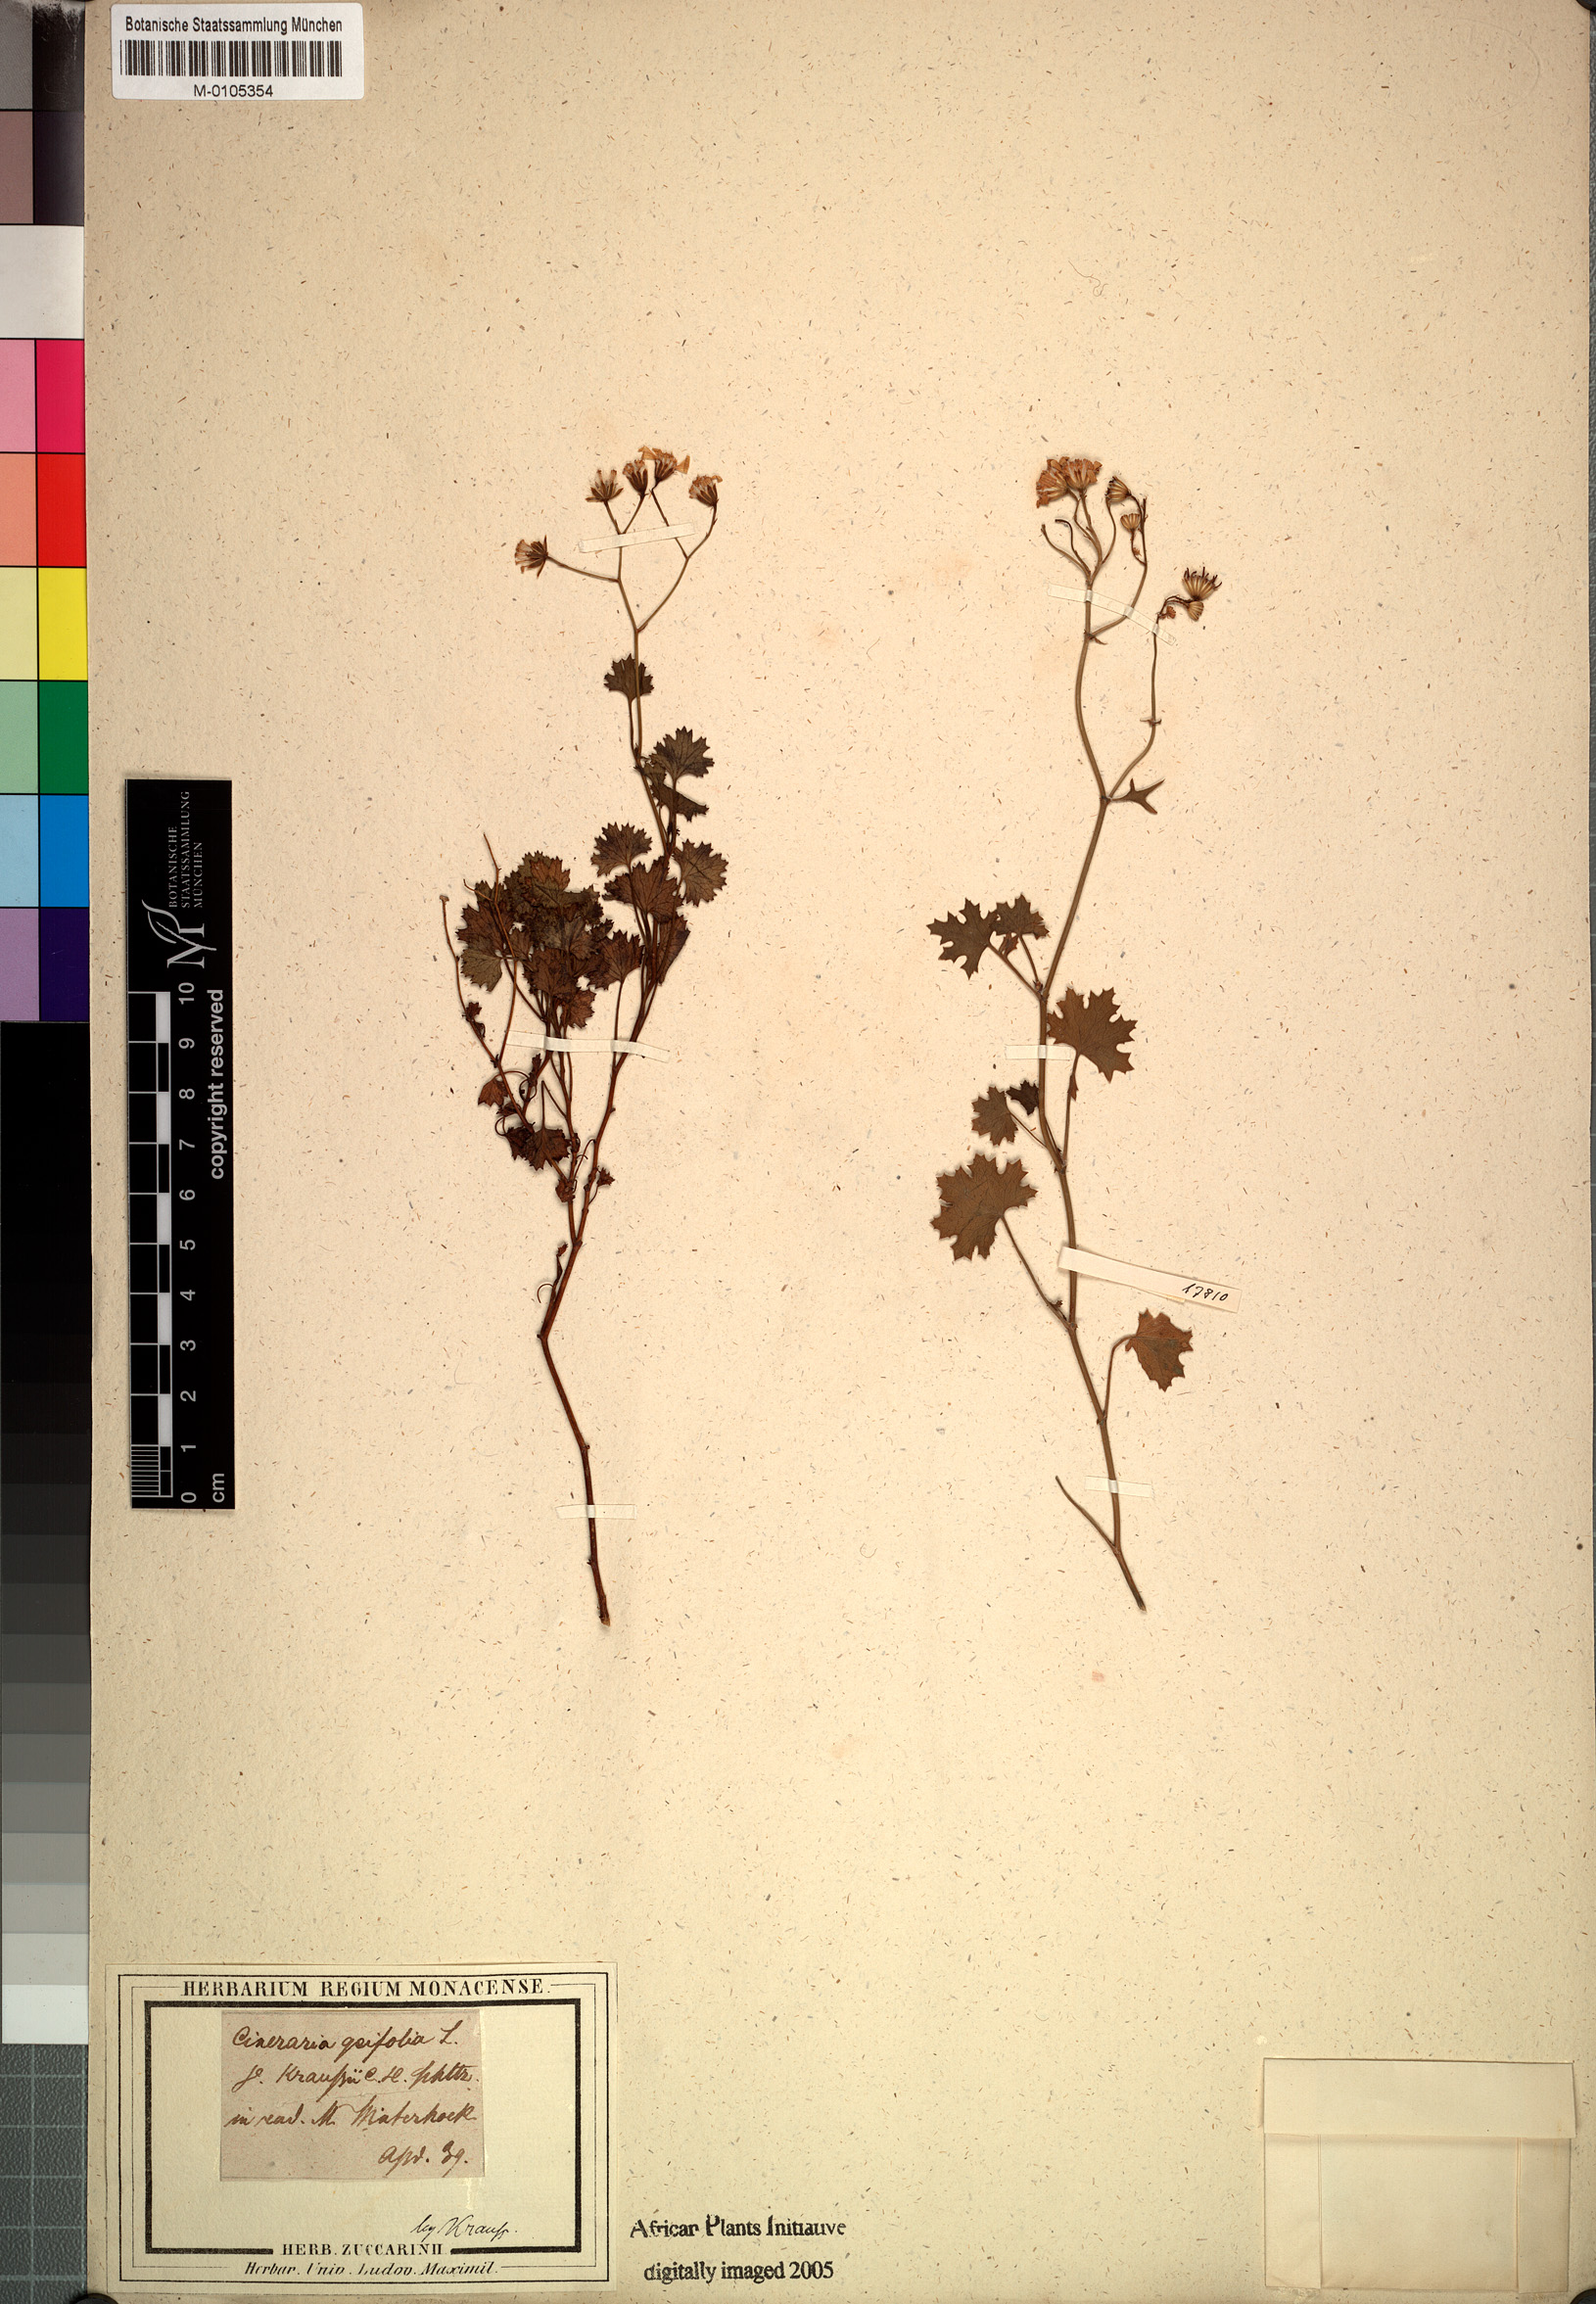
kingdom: Plantae
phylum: Tracheophyta
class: Magnoliopsida
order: Asterales
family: Asteraceae
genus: Cineraria
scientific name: Cineraria geifolia
